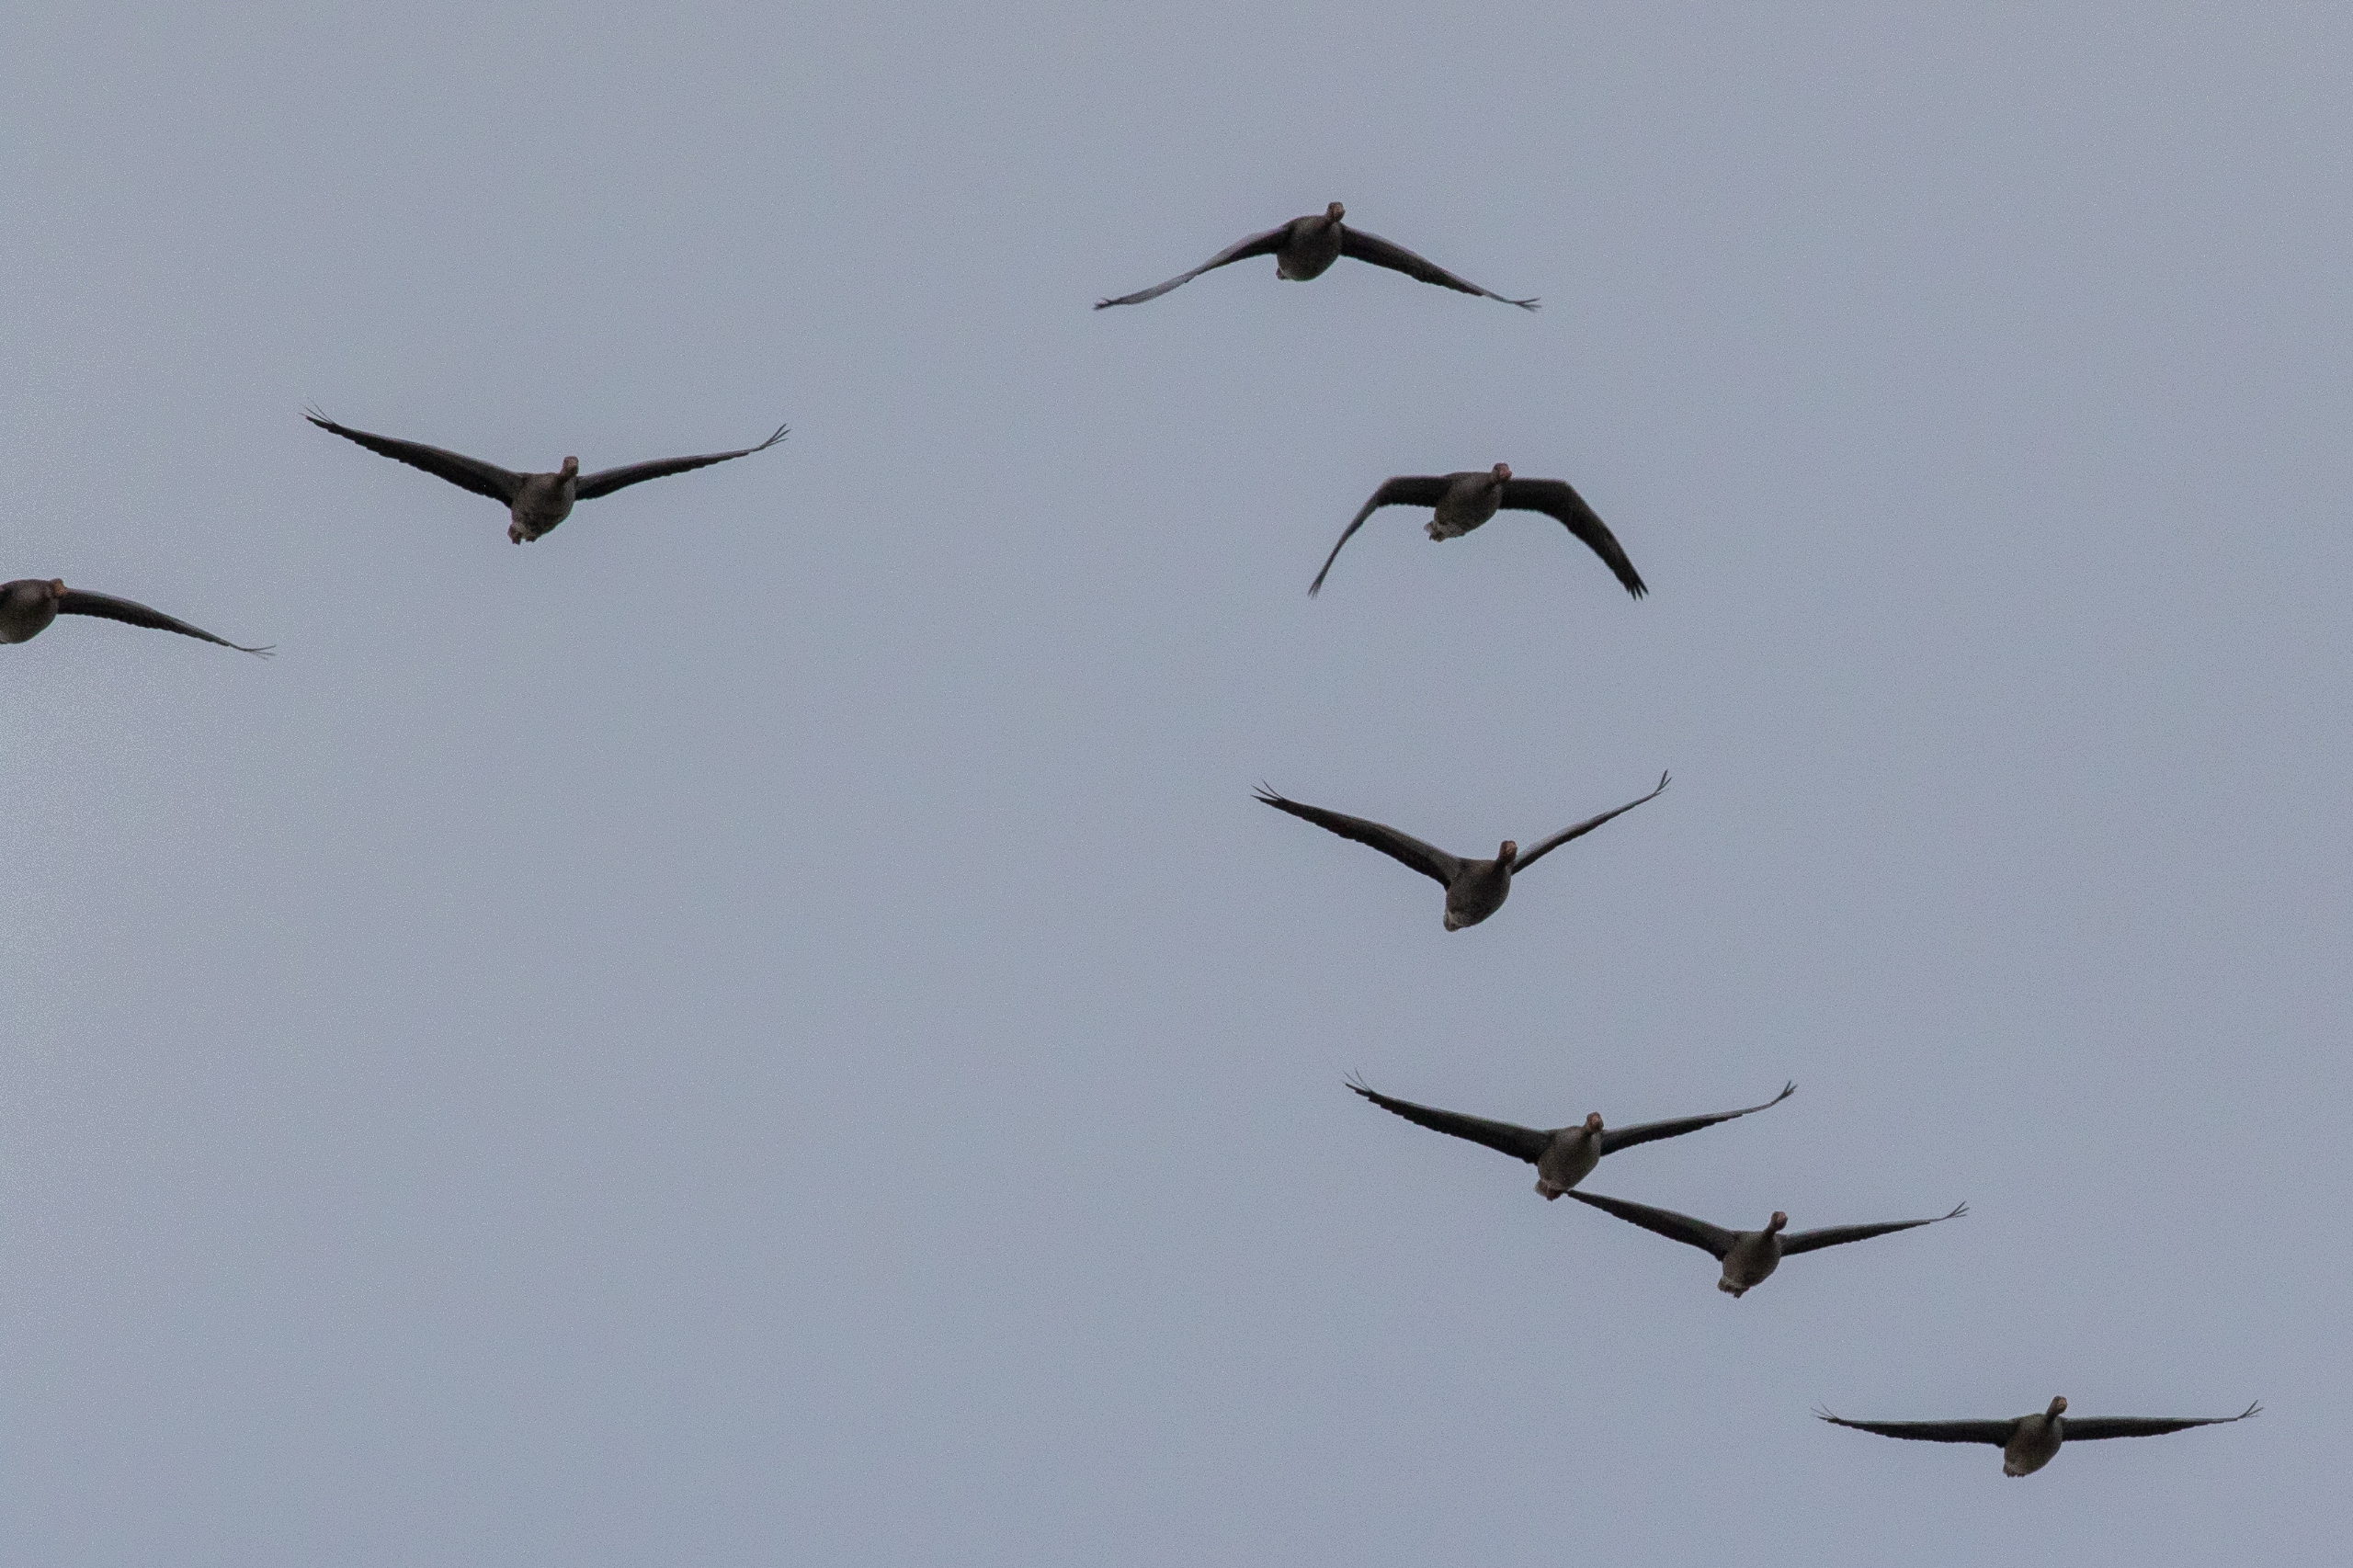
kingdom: Animalia
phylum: Chordata
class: Aves
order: Anseriformes
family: Anatidae
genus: Anser
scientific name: Anser anser
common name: Grågås
